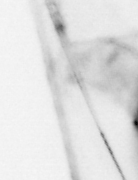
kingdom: Animalia
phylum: Chaetognatha
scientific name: Chaetognatha
